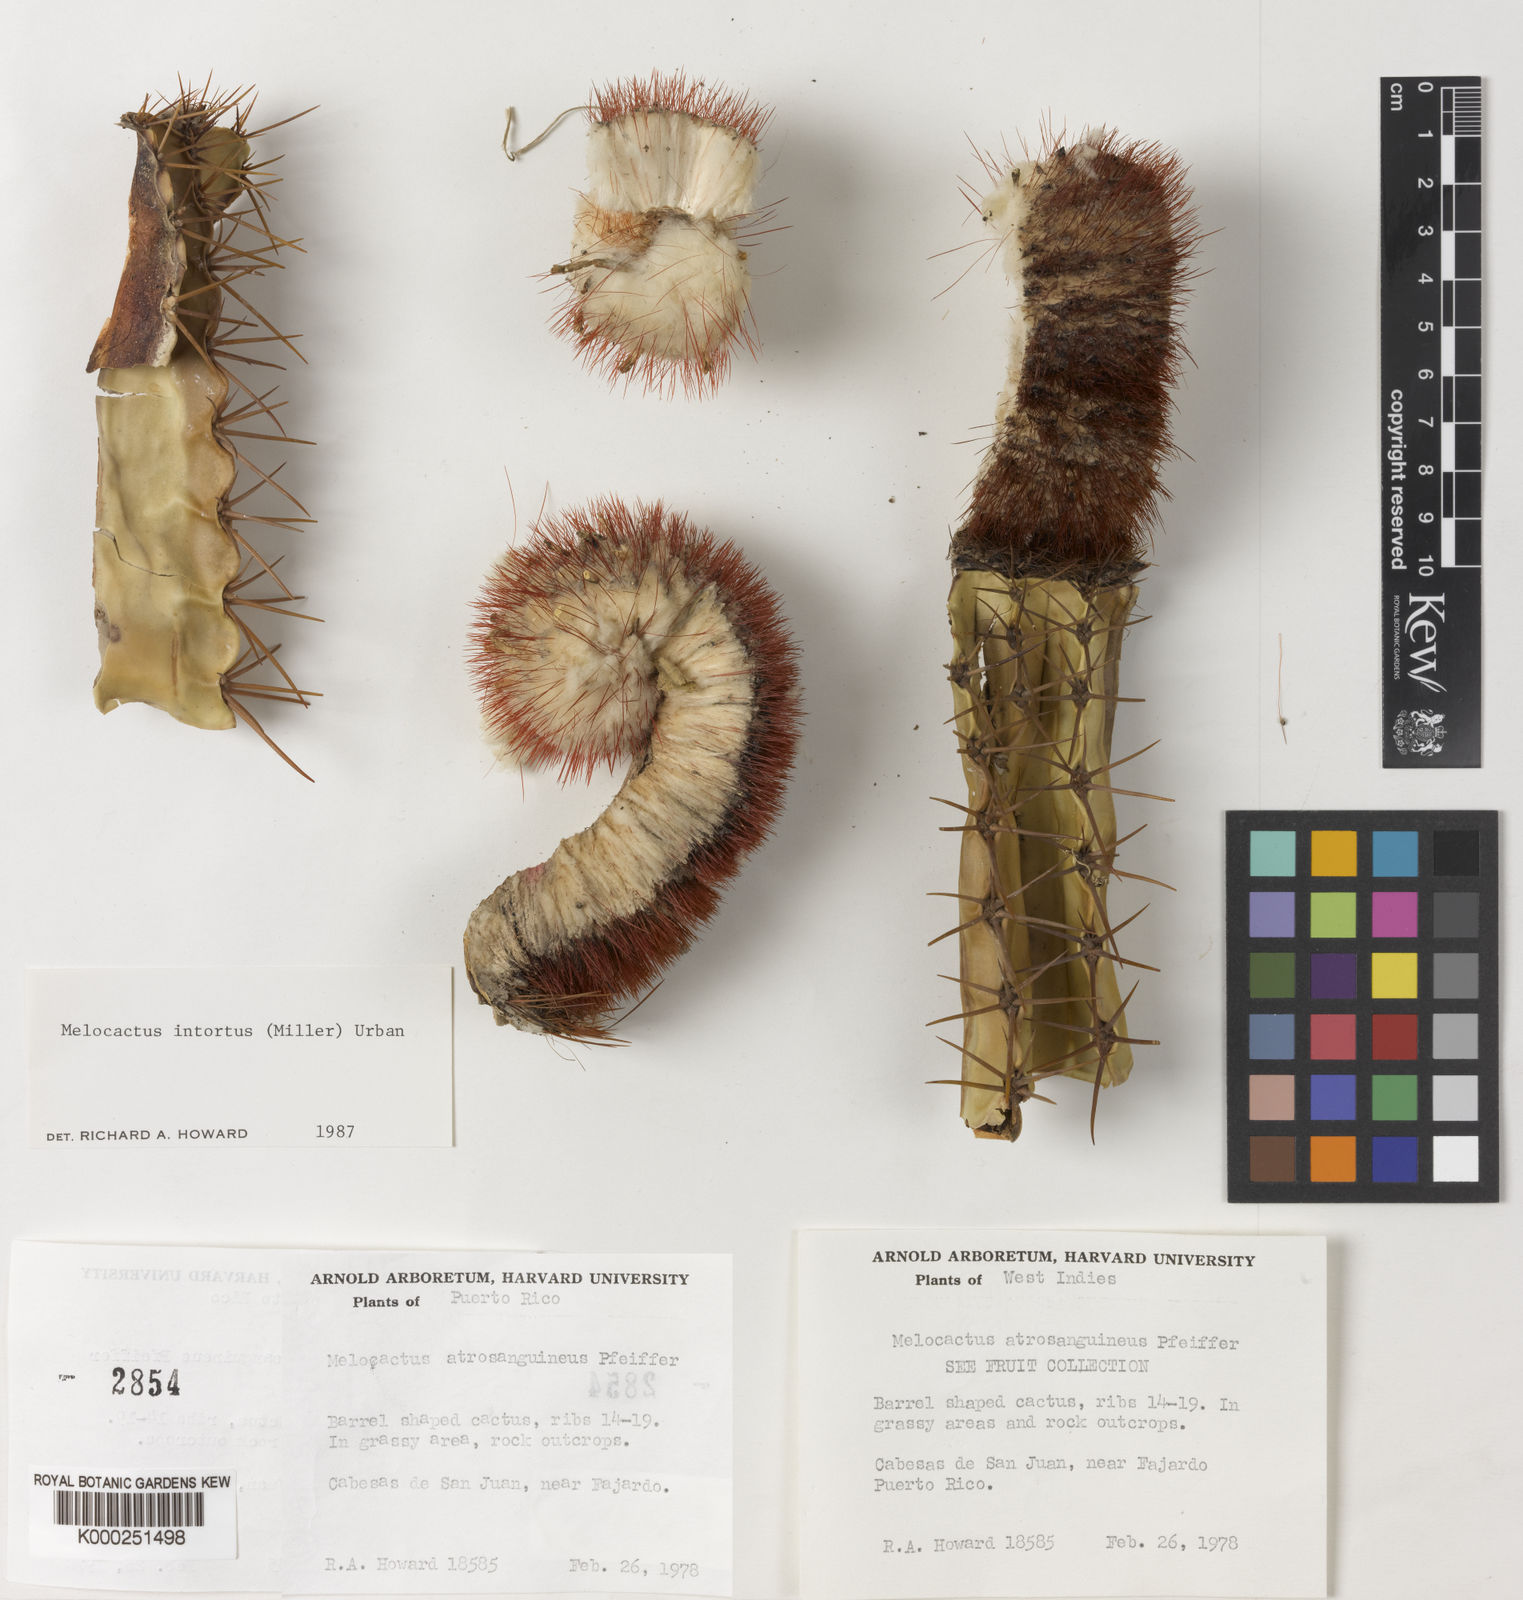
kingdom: Plantae
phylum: Tracheophyta
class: Magnoliopsida
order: Caryophyllales
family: Cactaceae
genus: Melocactus
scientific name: Melocactus intortus
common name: Barrel cactus
